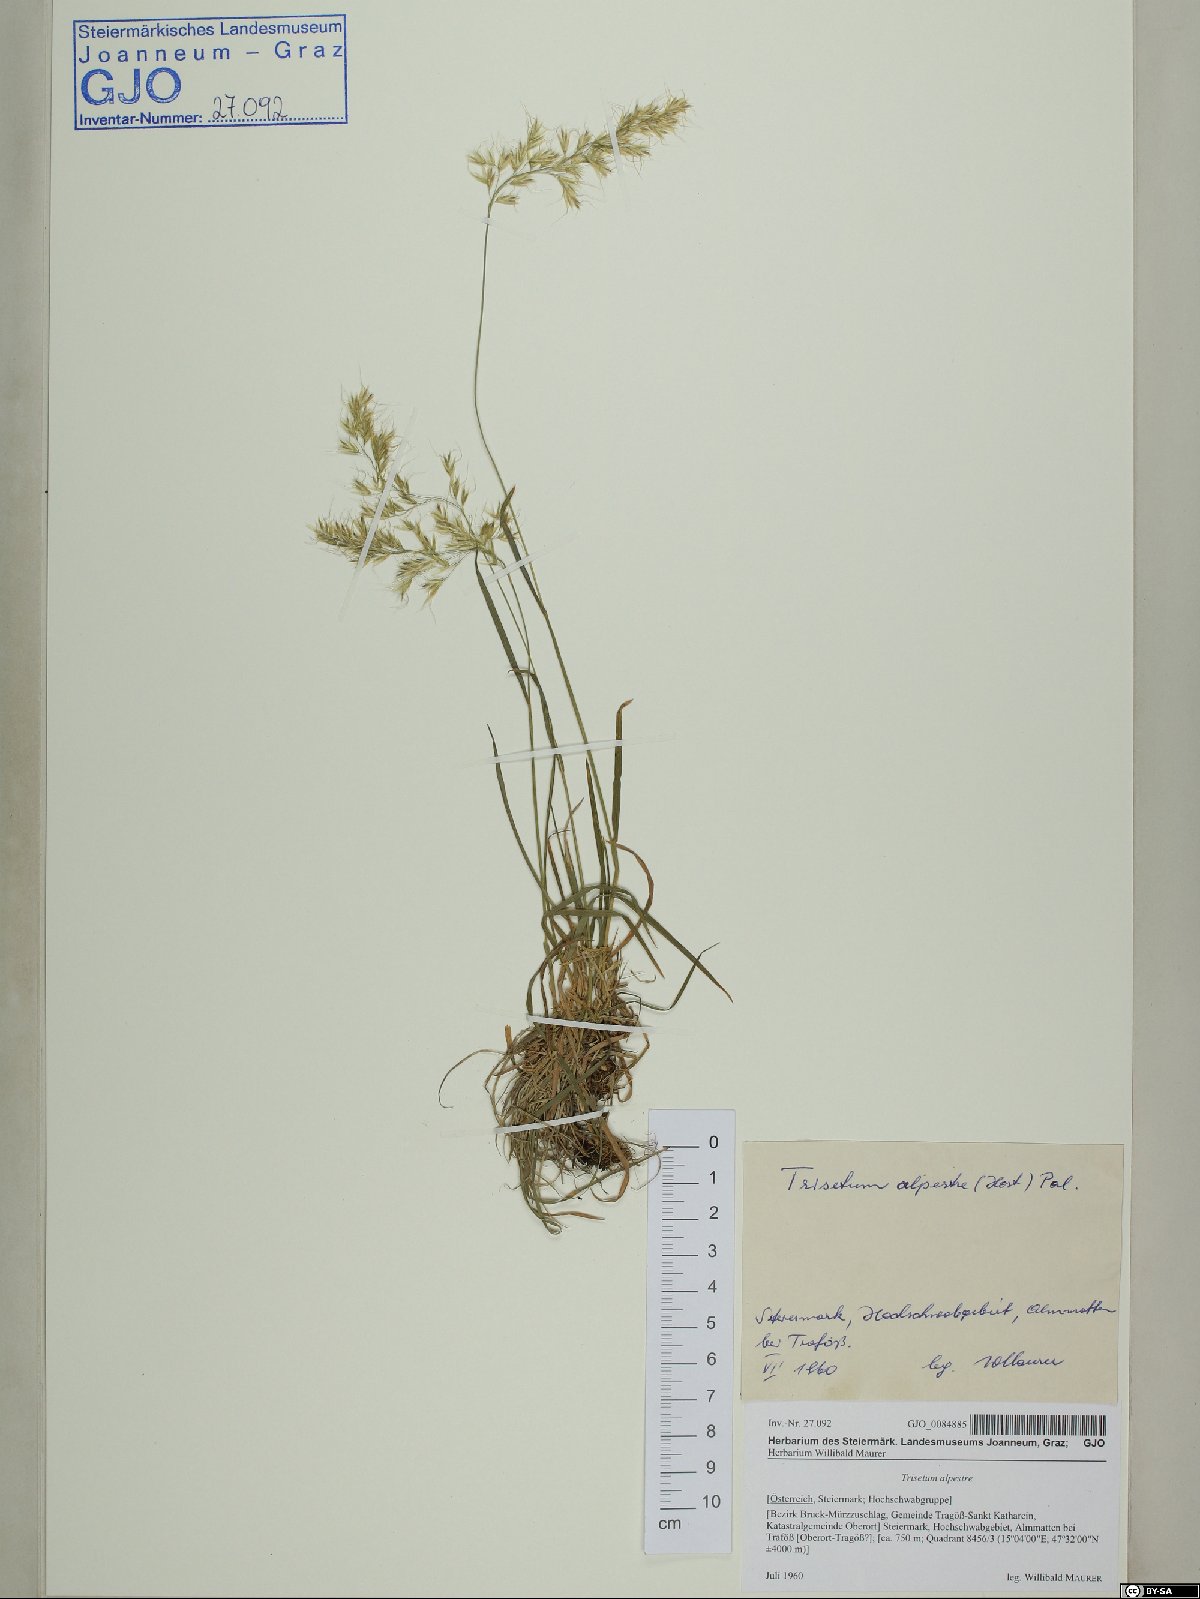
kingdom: Plantae
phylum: Tracheophyta
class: Liliopsida
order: Poales
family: Poaceae
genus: Trisetum
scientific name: Trisetum alpestre
